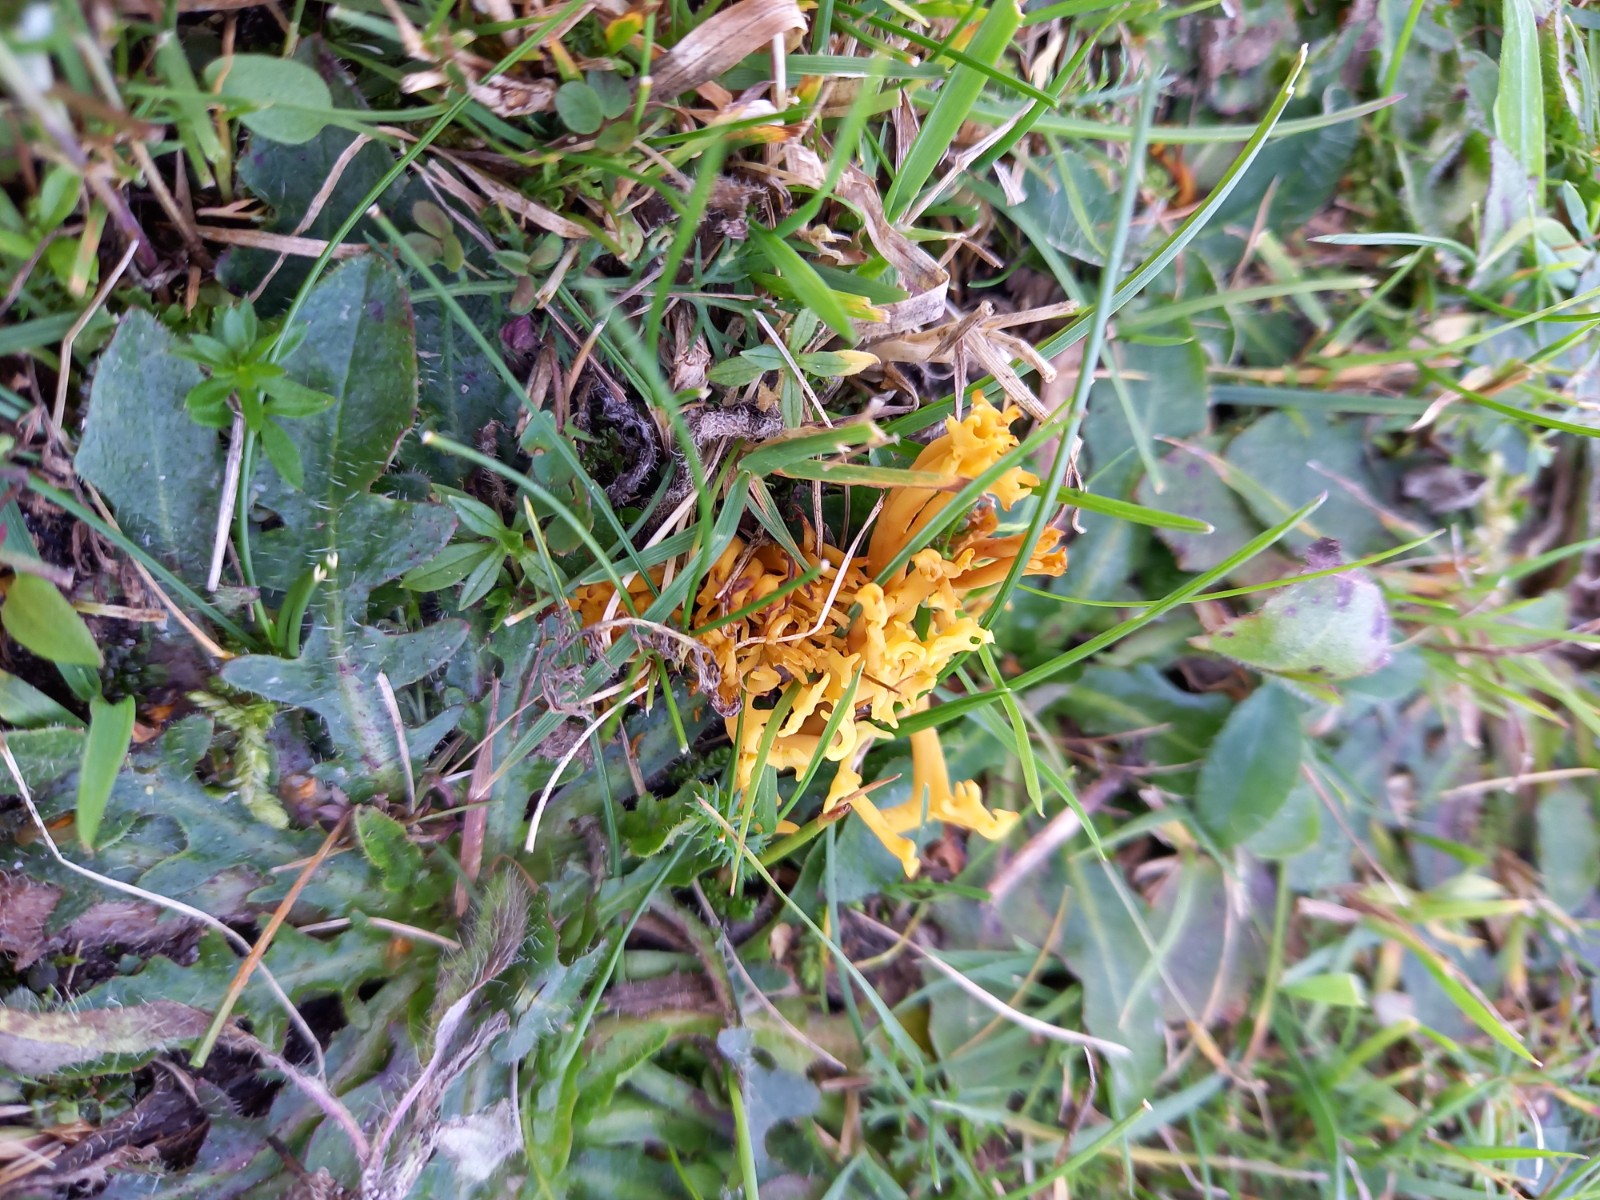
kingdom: Fungi
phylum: Basidiomycota
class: Agaricomycetes
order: Agaricales
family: Clavariaceae
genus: Clavulinopsis
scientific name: Clavulinopsis corniculata
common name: eng-køllesvamp
